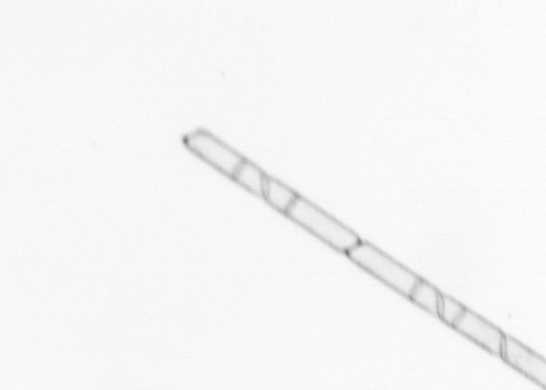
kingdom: Chromista
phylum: Ochrophyta
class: Bacillariophyceae
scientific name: Bacillariophyceae
